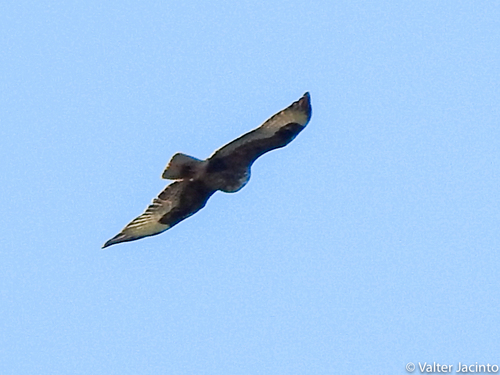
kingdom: Animalia
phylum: Chordata
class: Aves
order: Accipitriformes
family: Accipitridae
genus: Aquila
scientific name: Aquila fasciata
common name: Bonelli's eagle
